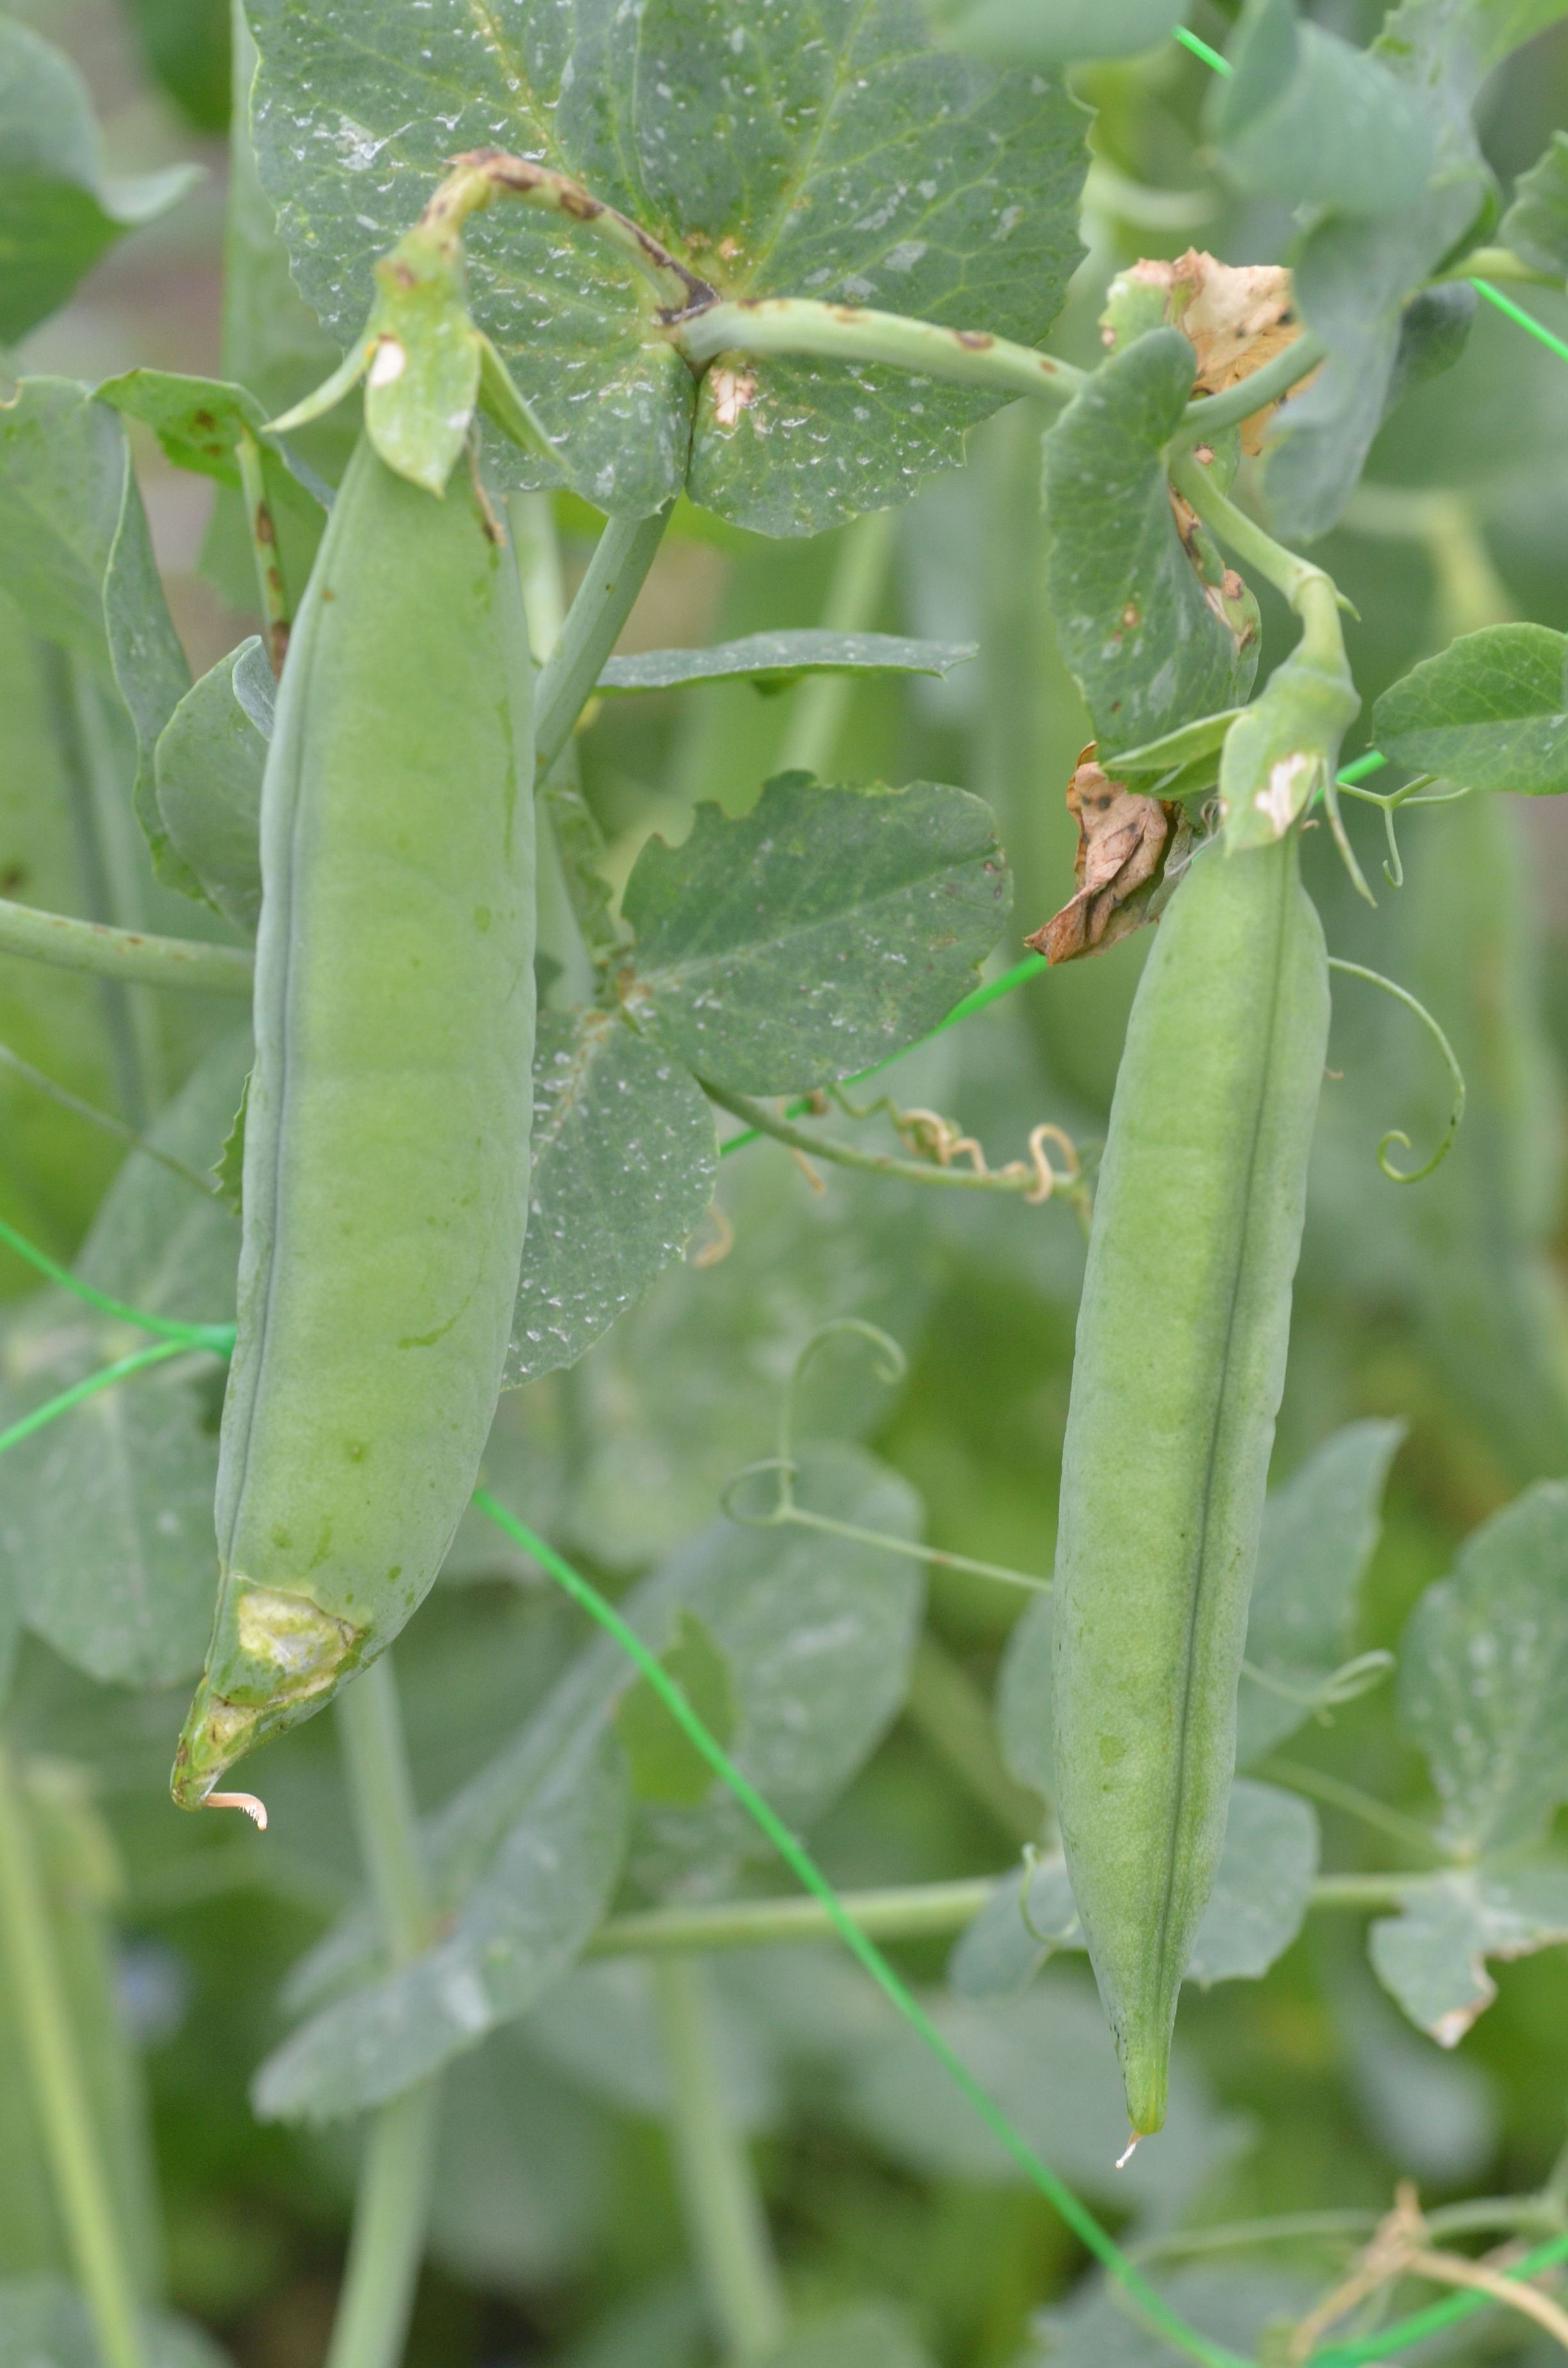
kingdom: Plantae
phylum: Tracheophyta
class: Magnoliopsida
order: Fabales
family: Fabaceae
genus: Lathyrus
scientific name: Lathyrus oleraceus
